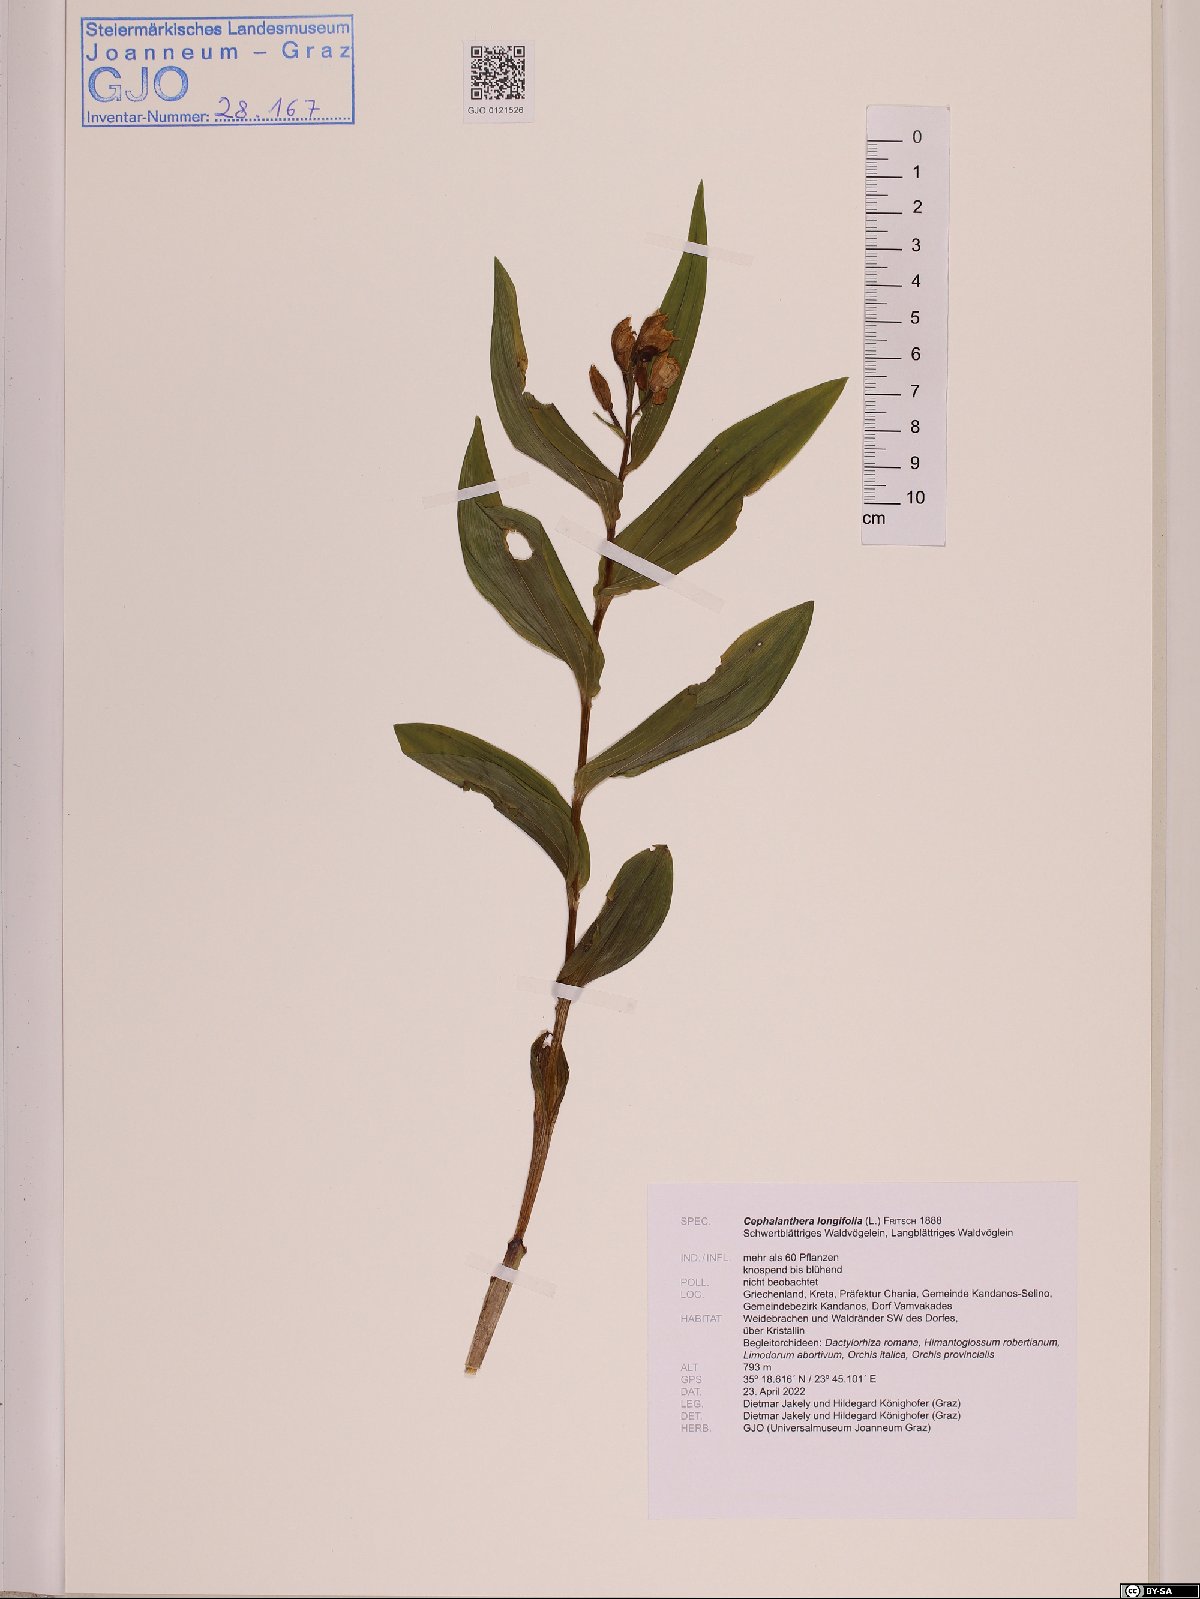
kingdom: Plantae
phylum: Tracheophyta
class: Liliopsida
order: Asparagales
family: Orchidaceae
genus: Cephalanthera
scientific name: Cephalanthera longifolia
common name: Narrow-leaved helleborine
